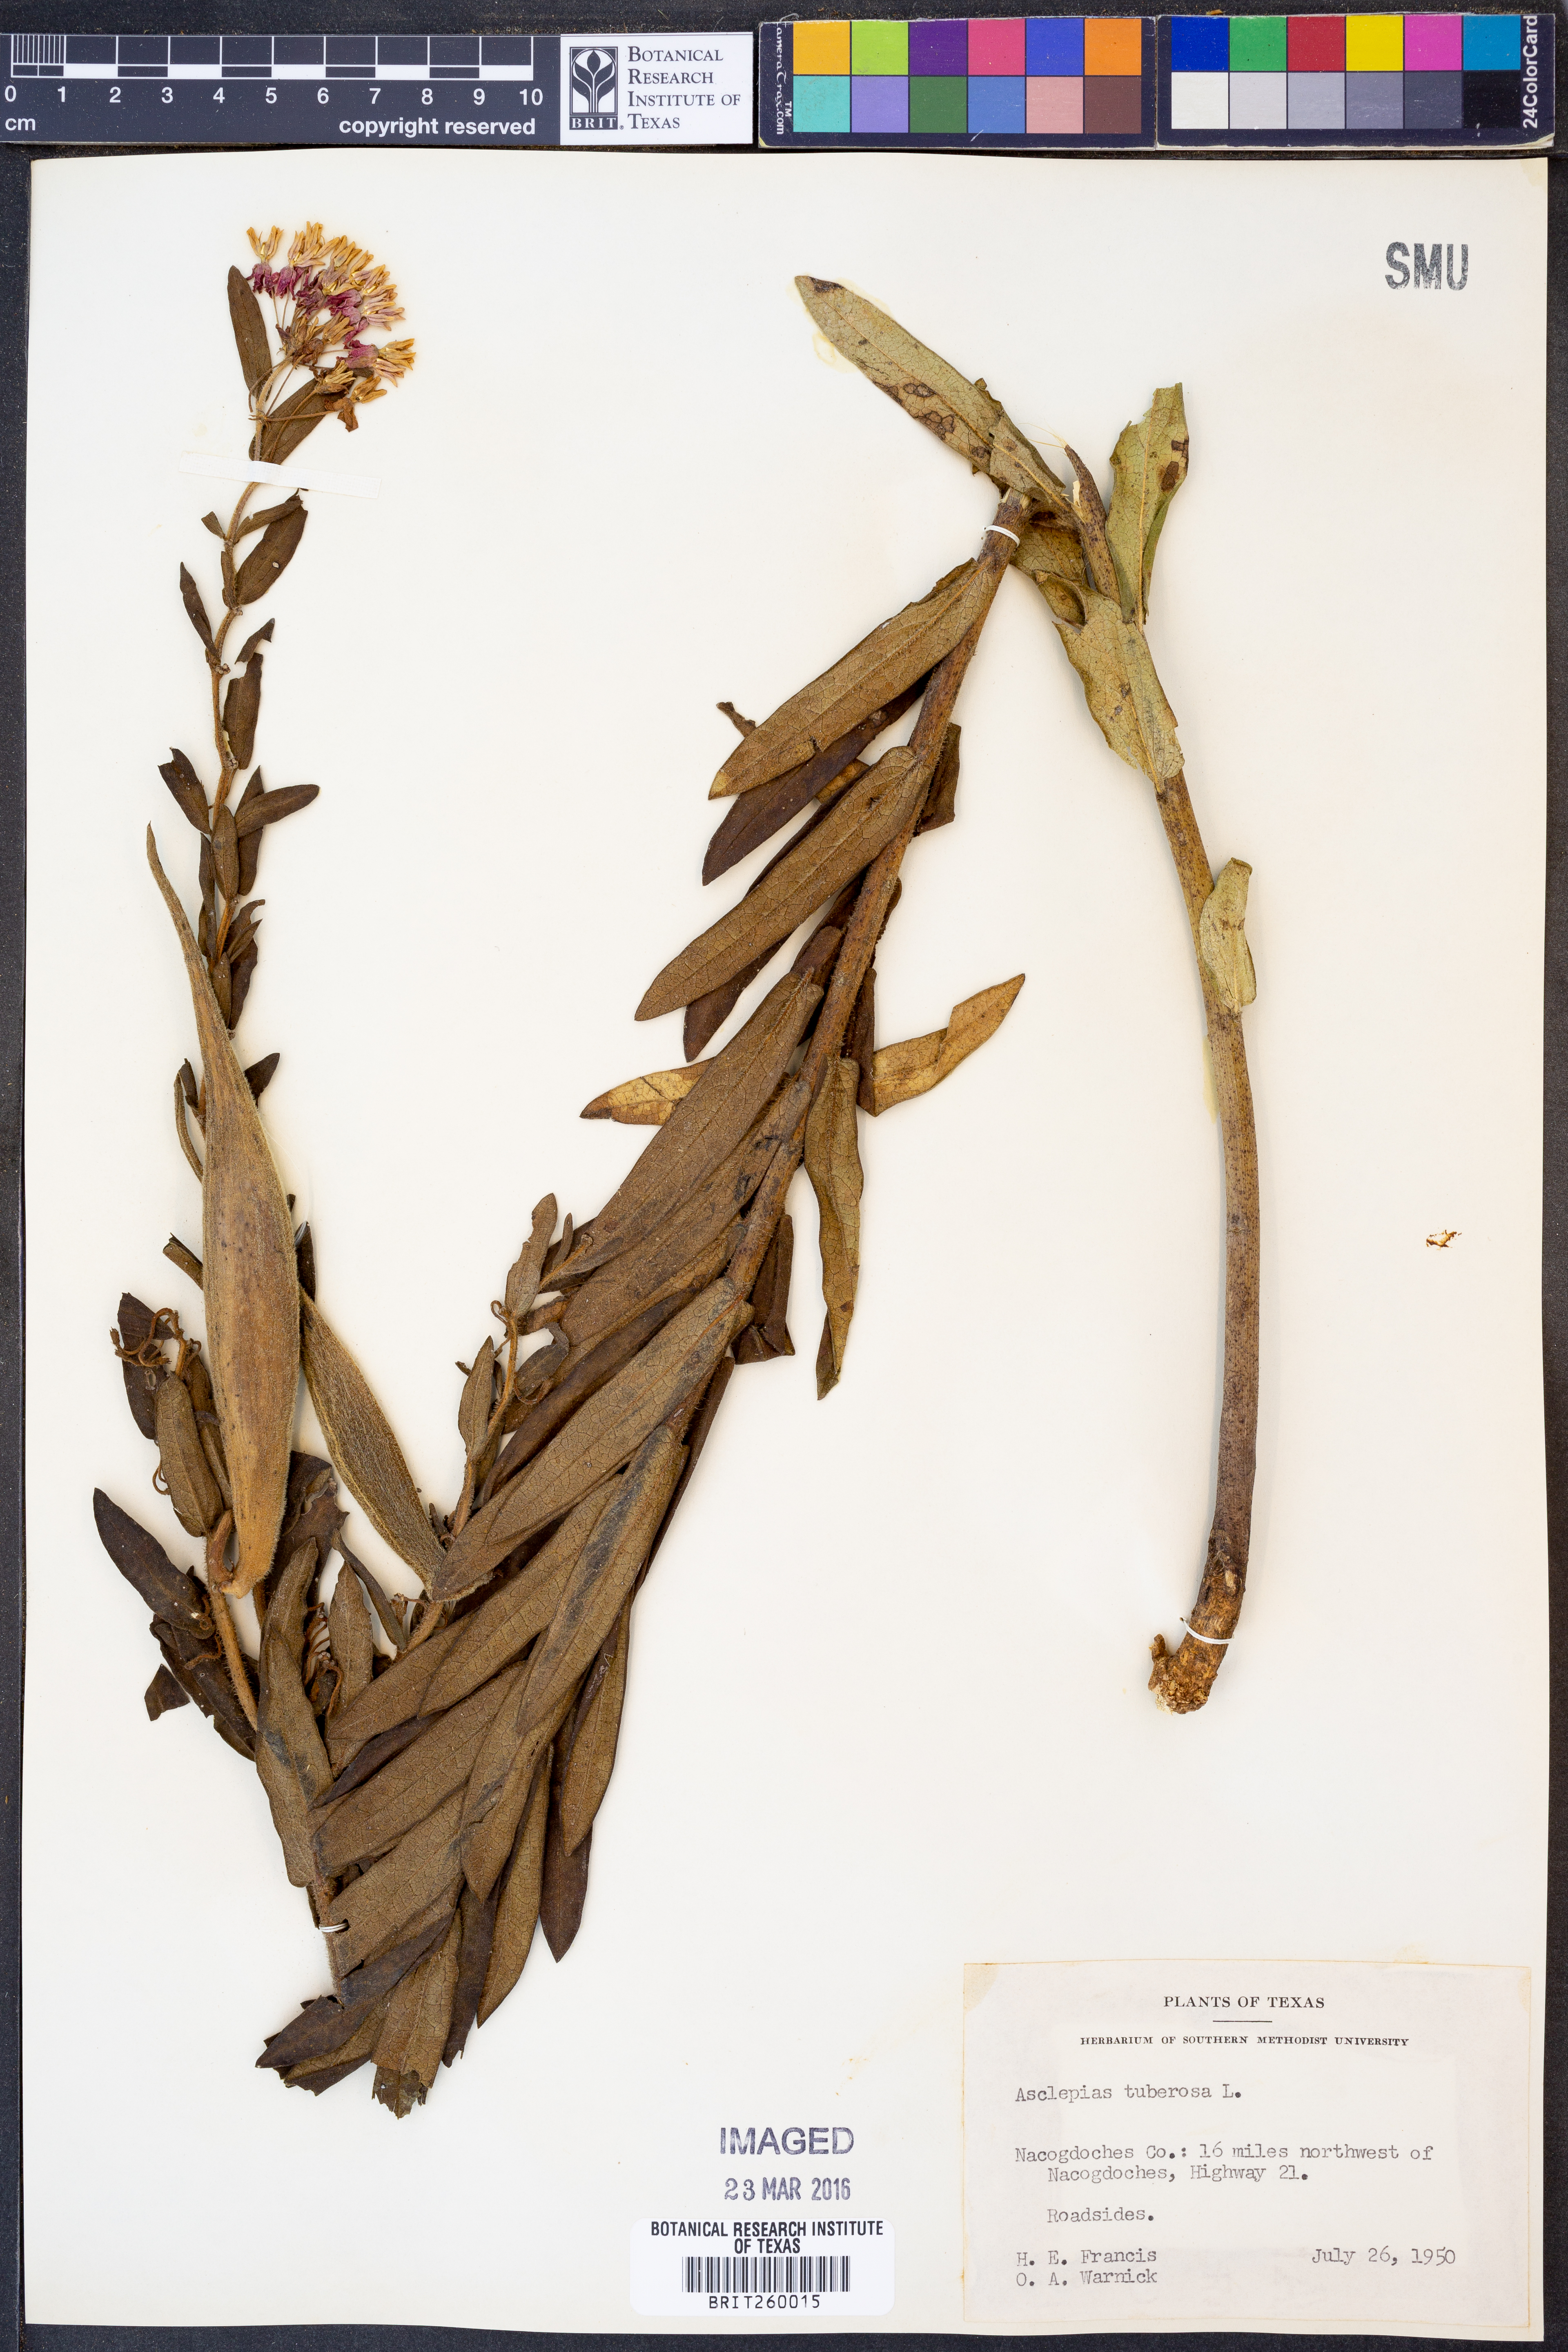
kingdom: Plantae
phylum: Tracheophyta
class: Magnoliopsida
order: Gentianales
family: Apocynaceae
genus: Asclepias
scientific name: Asclepias tuberosa
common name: Butterfly milkweed
